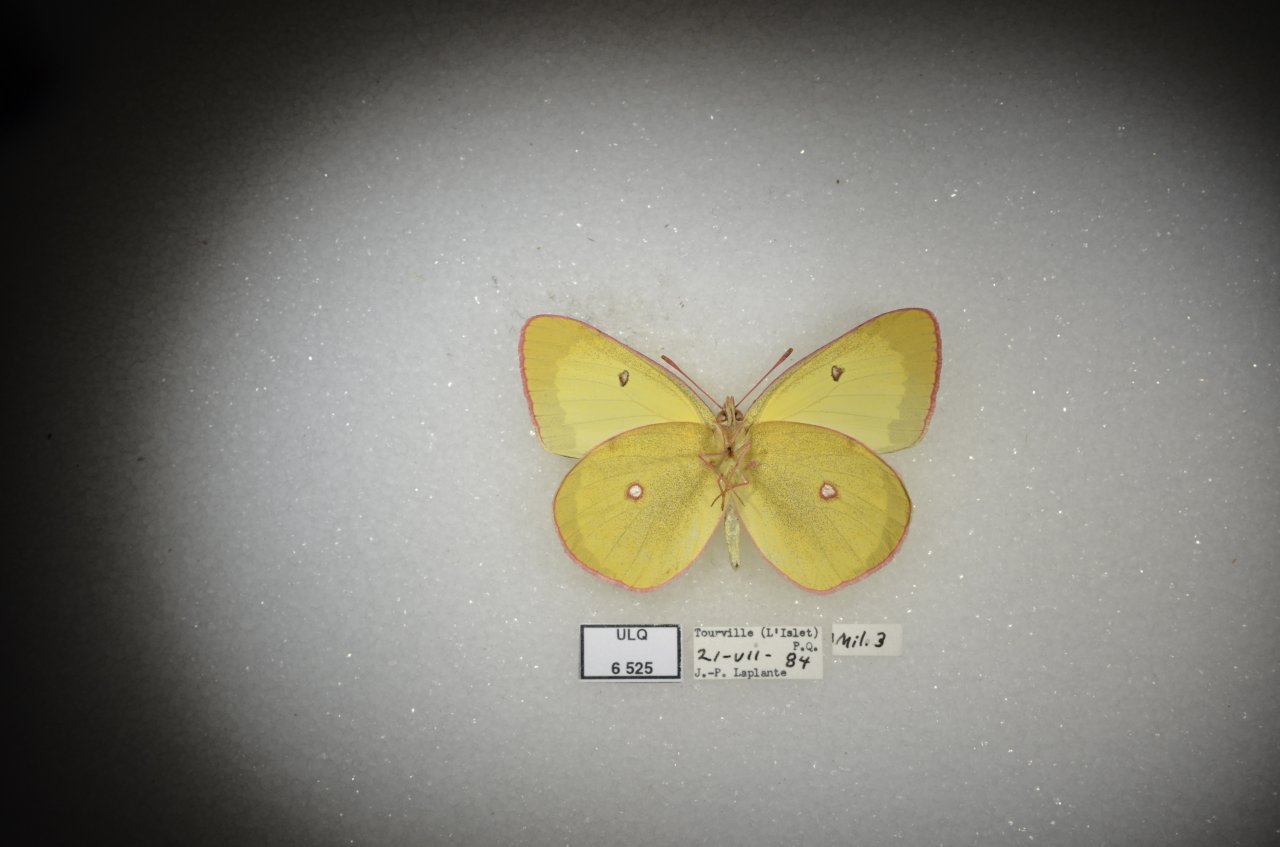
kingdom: Animalia
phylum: Arthropoda
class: Insecta
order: Lepidoptera
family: Pieridae
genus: Colias
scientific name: Colias interior
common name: Pink-edged Sulphur
